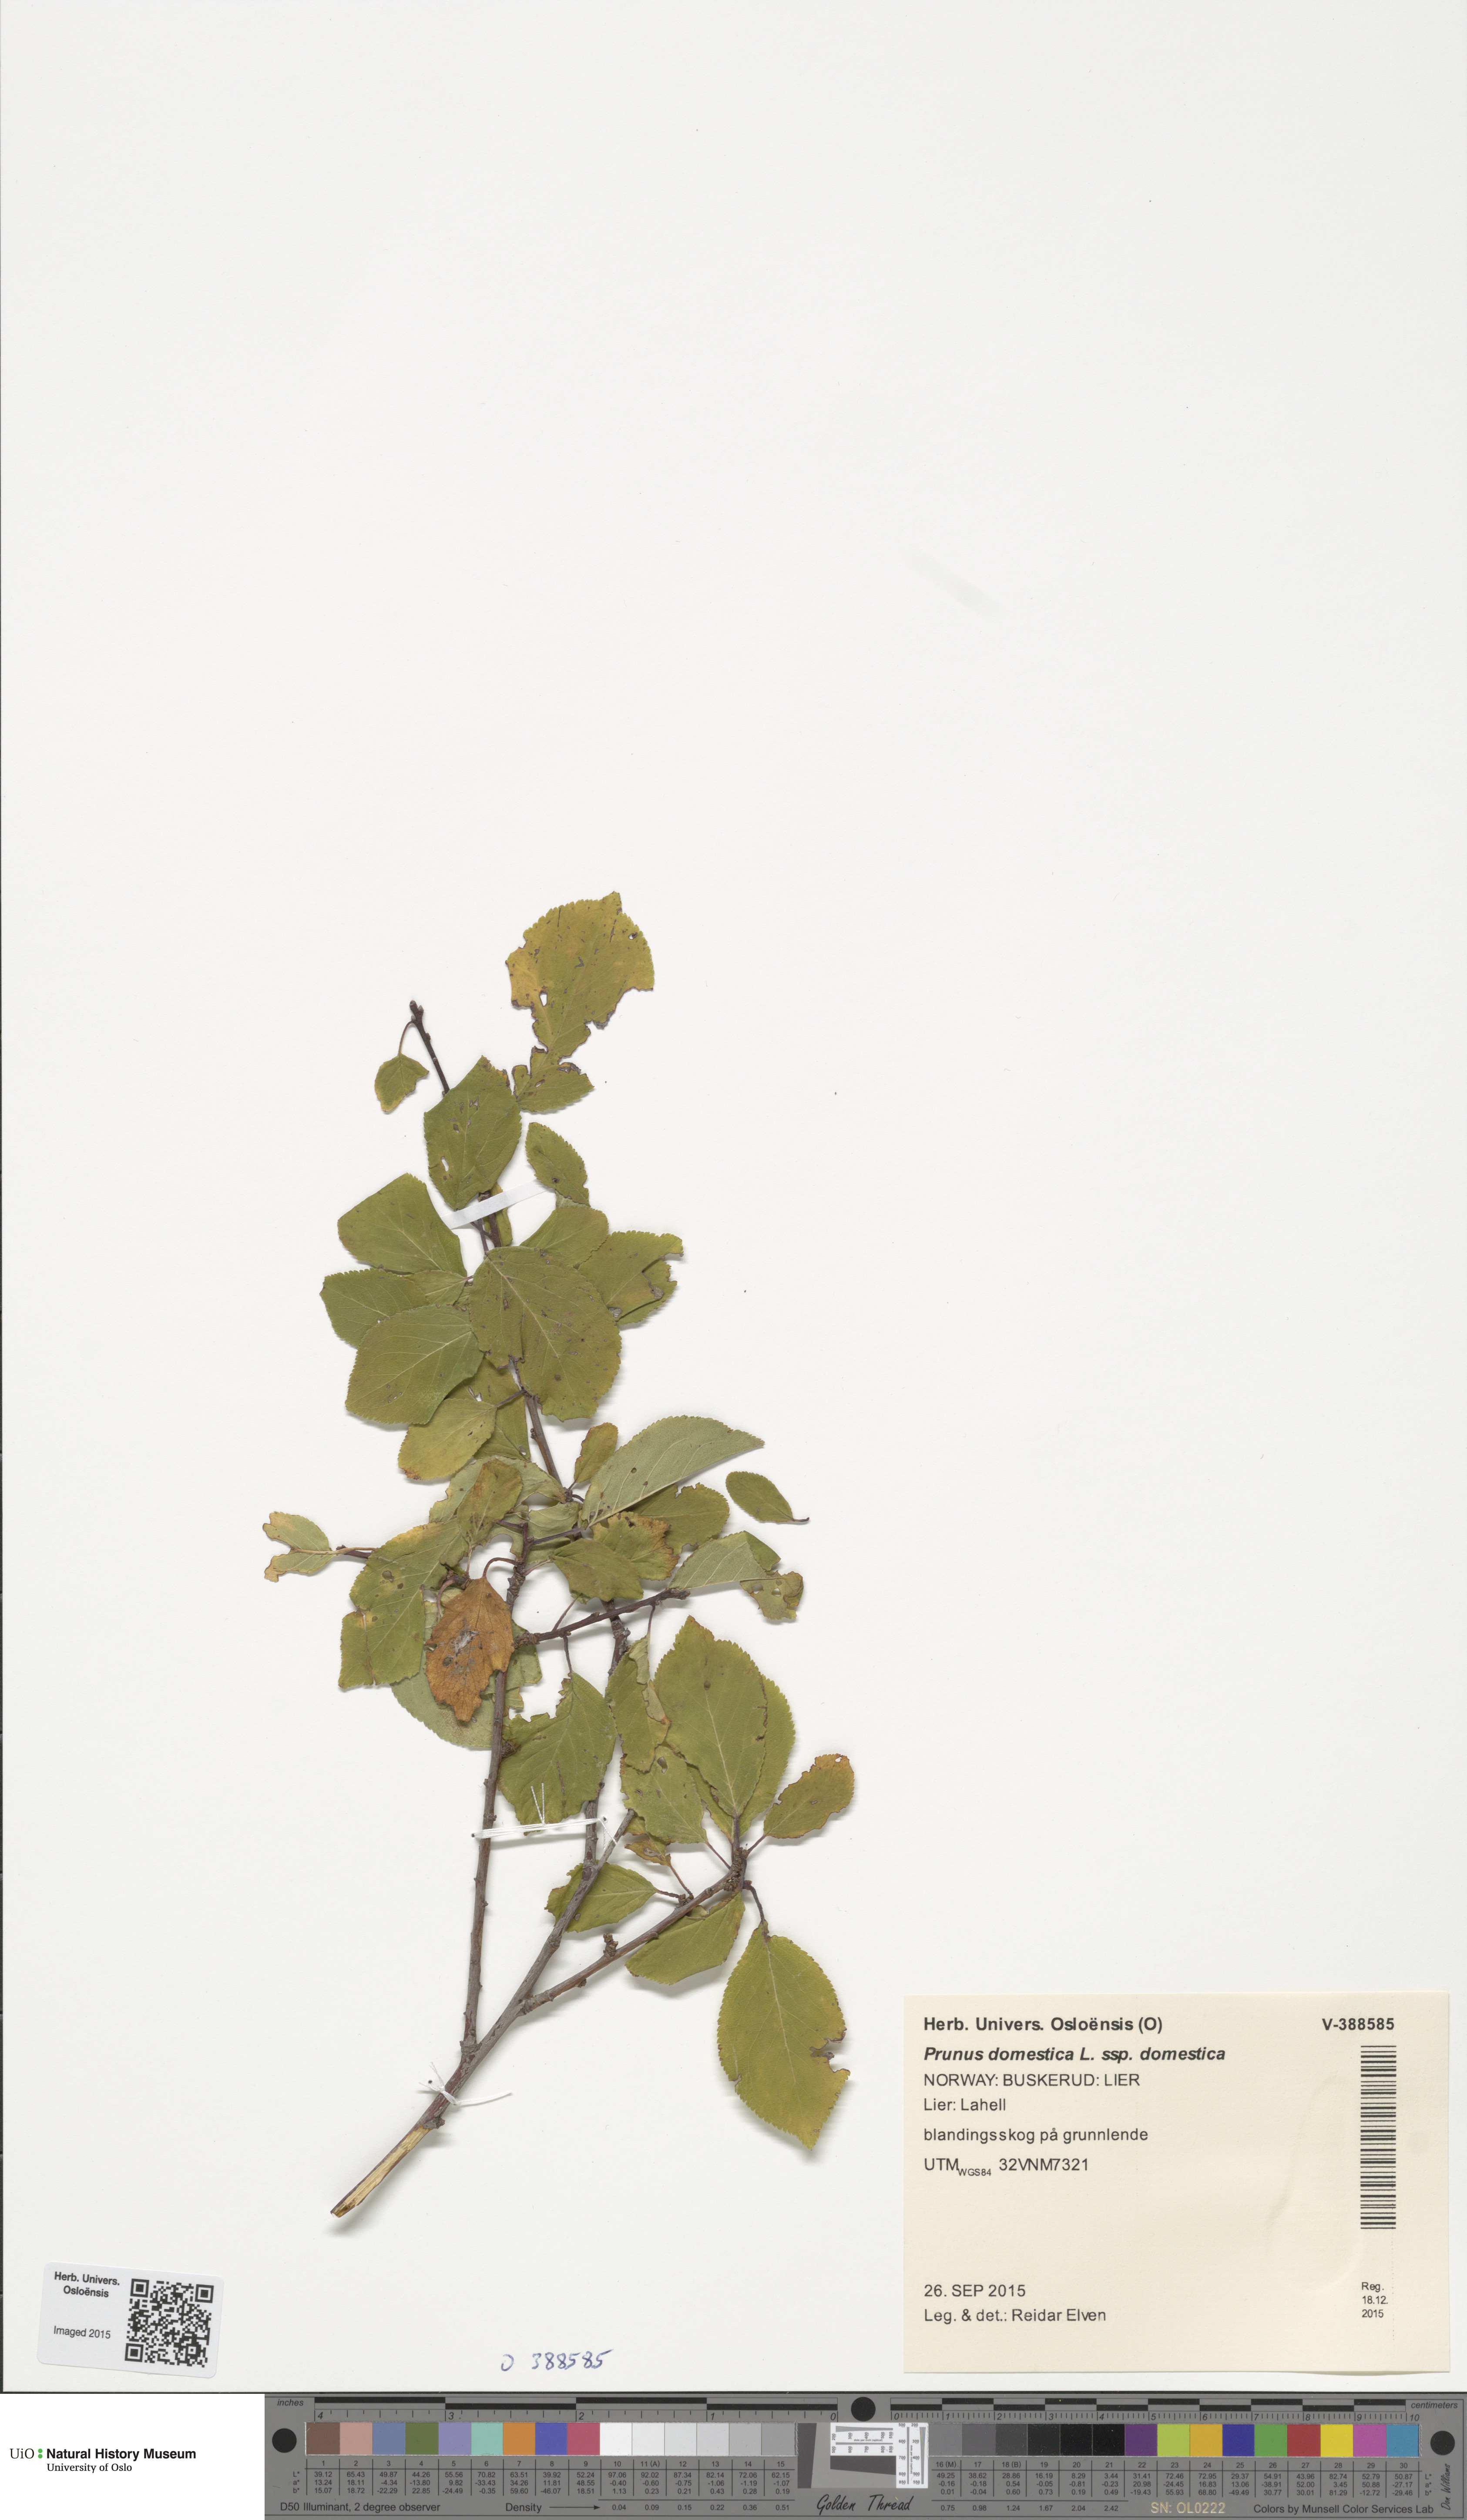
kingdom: Plantae
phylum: Tracheophyta
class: Magnoliopsida
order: Rosales
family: Rosaceae
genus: Prunus
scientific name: Prunus domestica
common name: Wild plum
